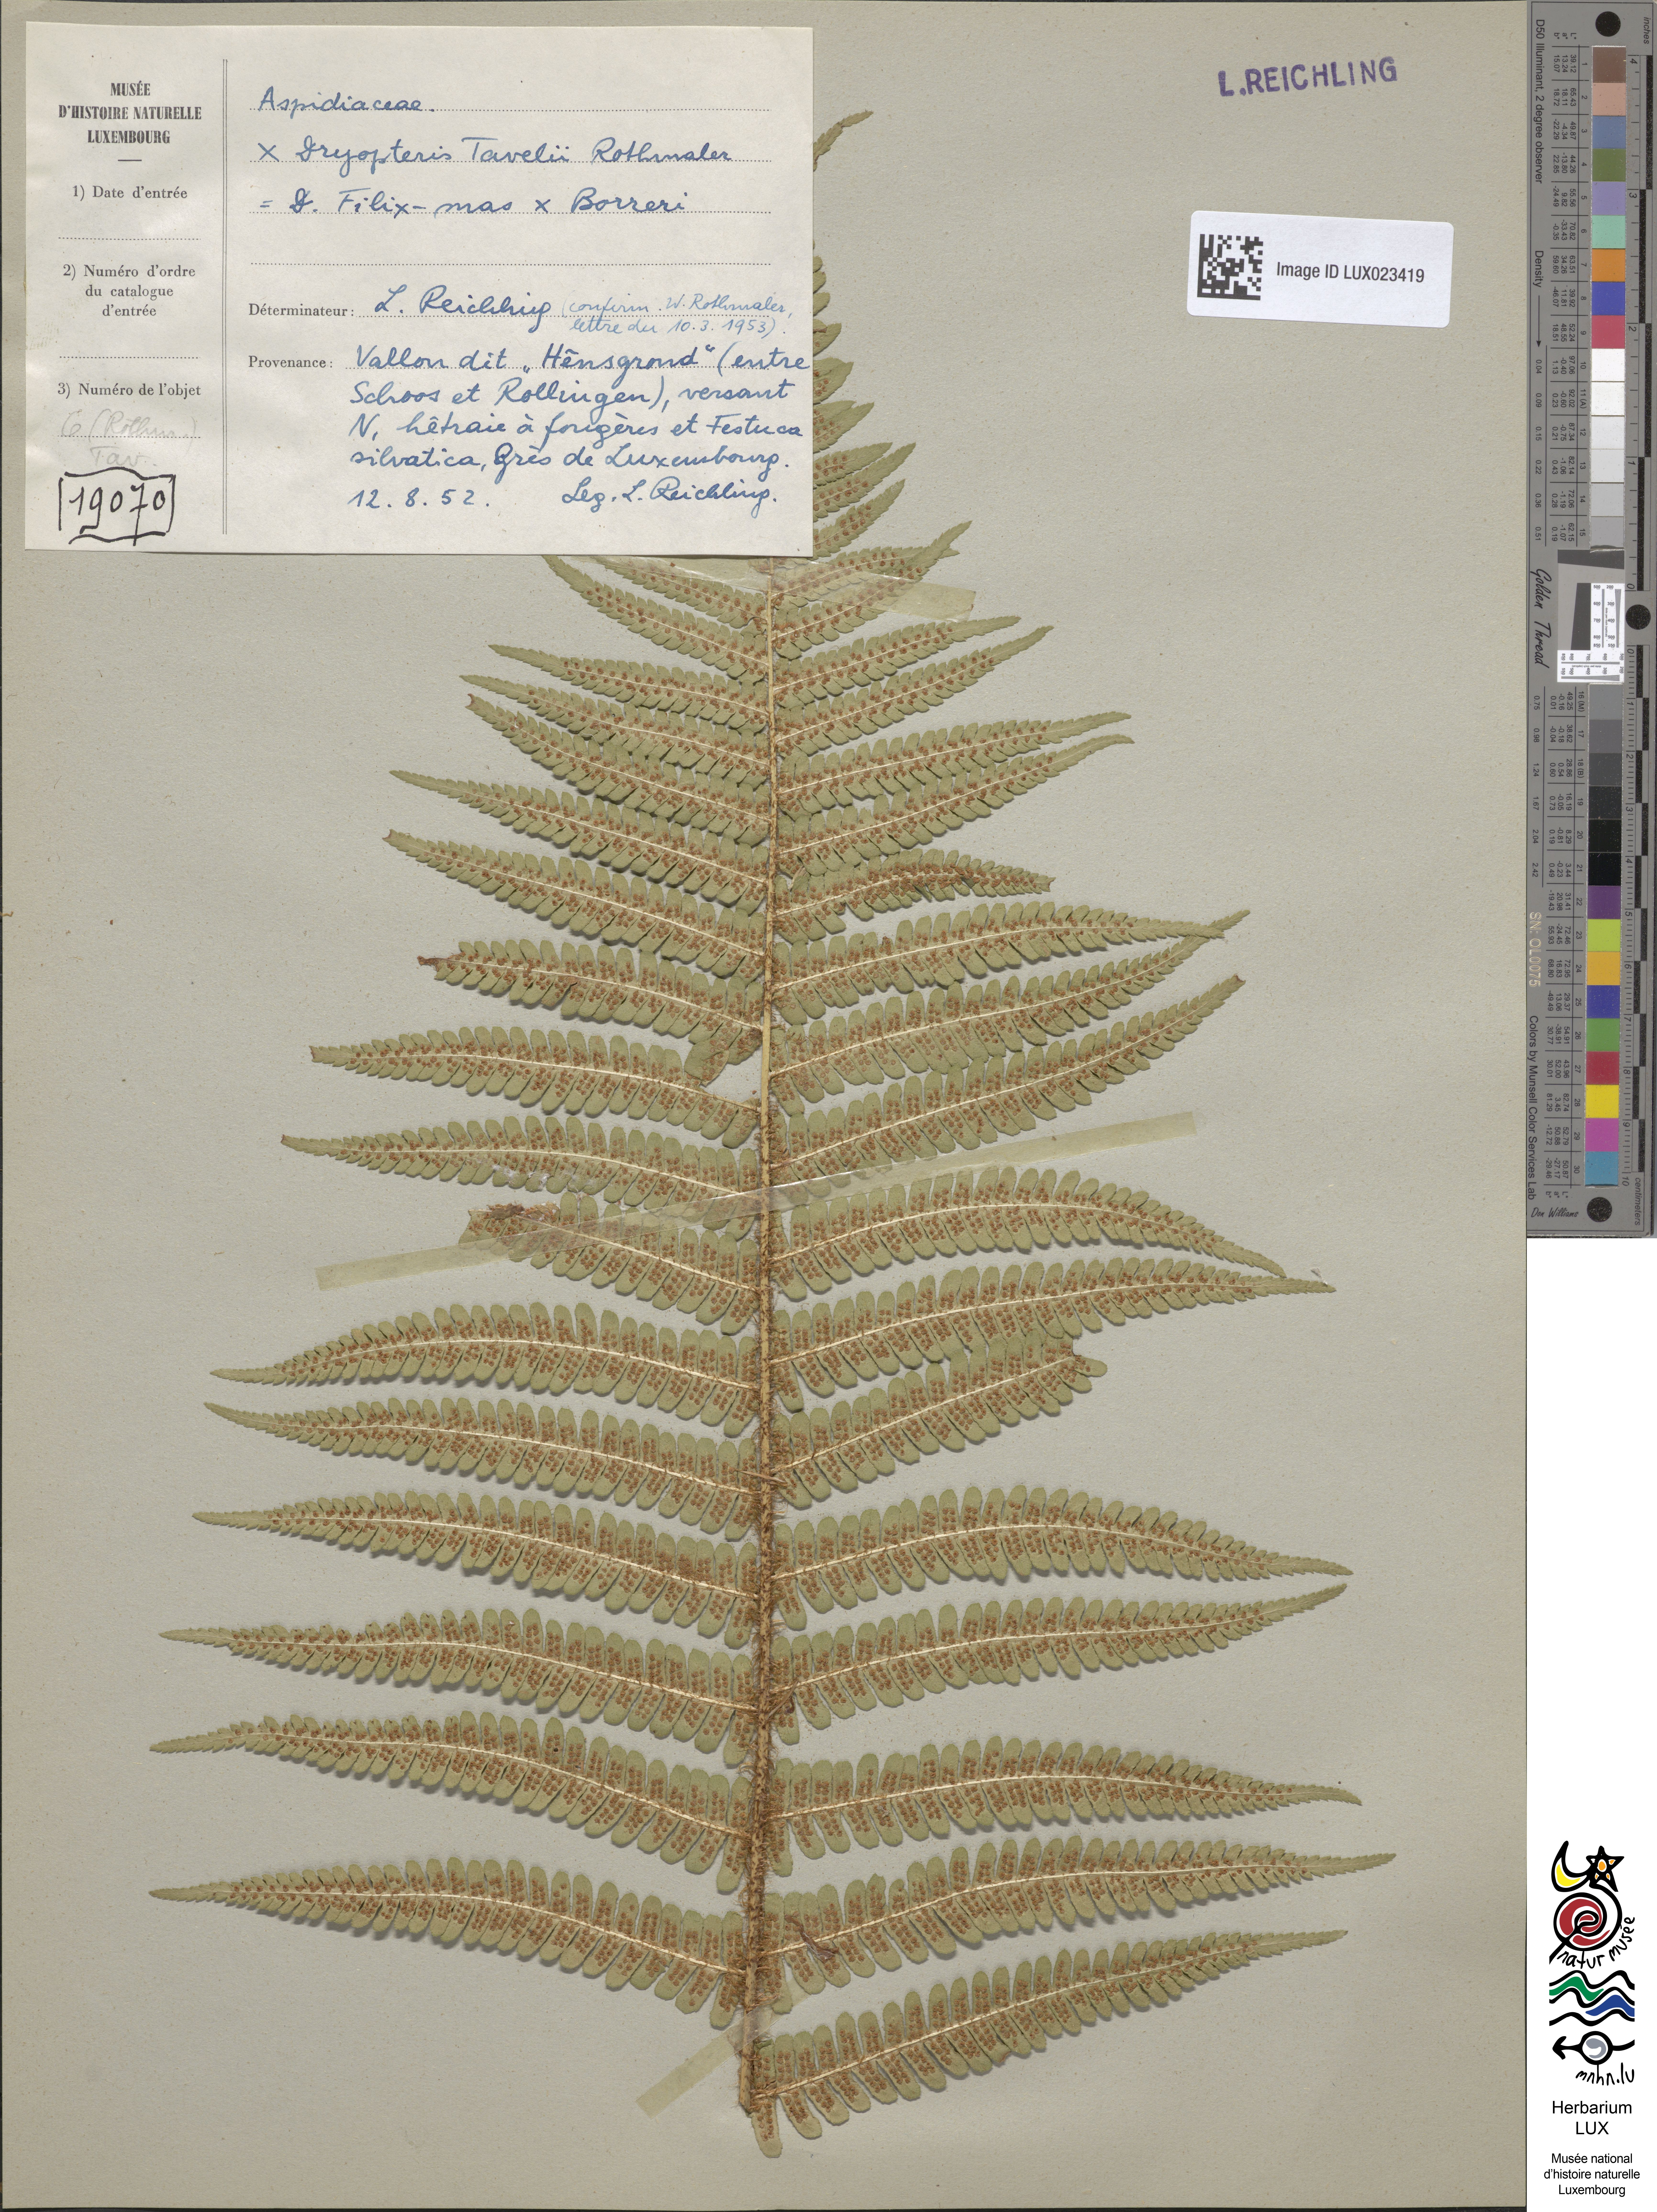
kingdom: Plantae
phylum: Tracheophyta
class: Polypodiopsida
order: Polypodiales
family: Dryopteridaceae
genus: Dryopteris
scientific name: Dryopteris borreri
